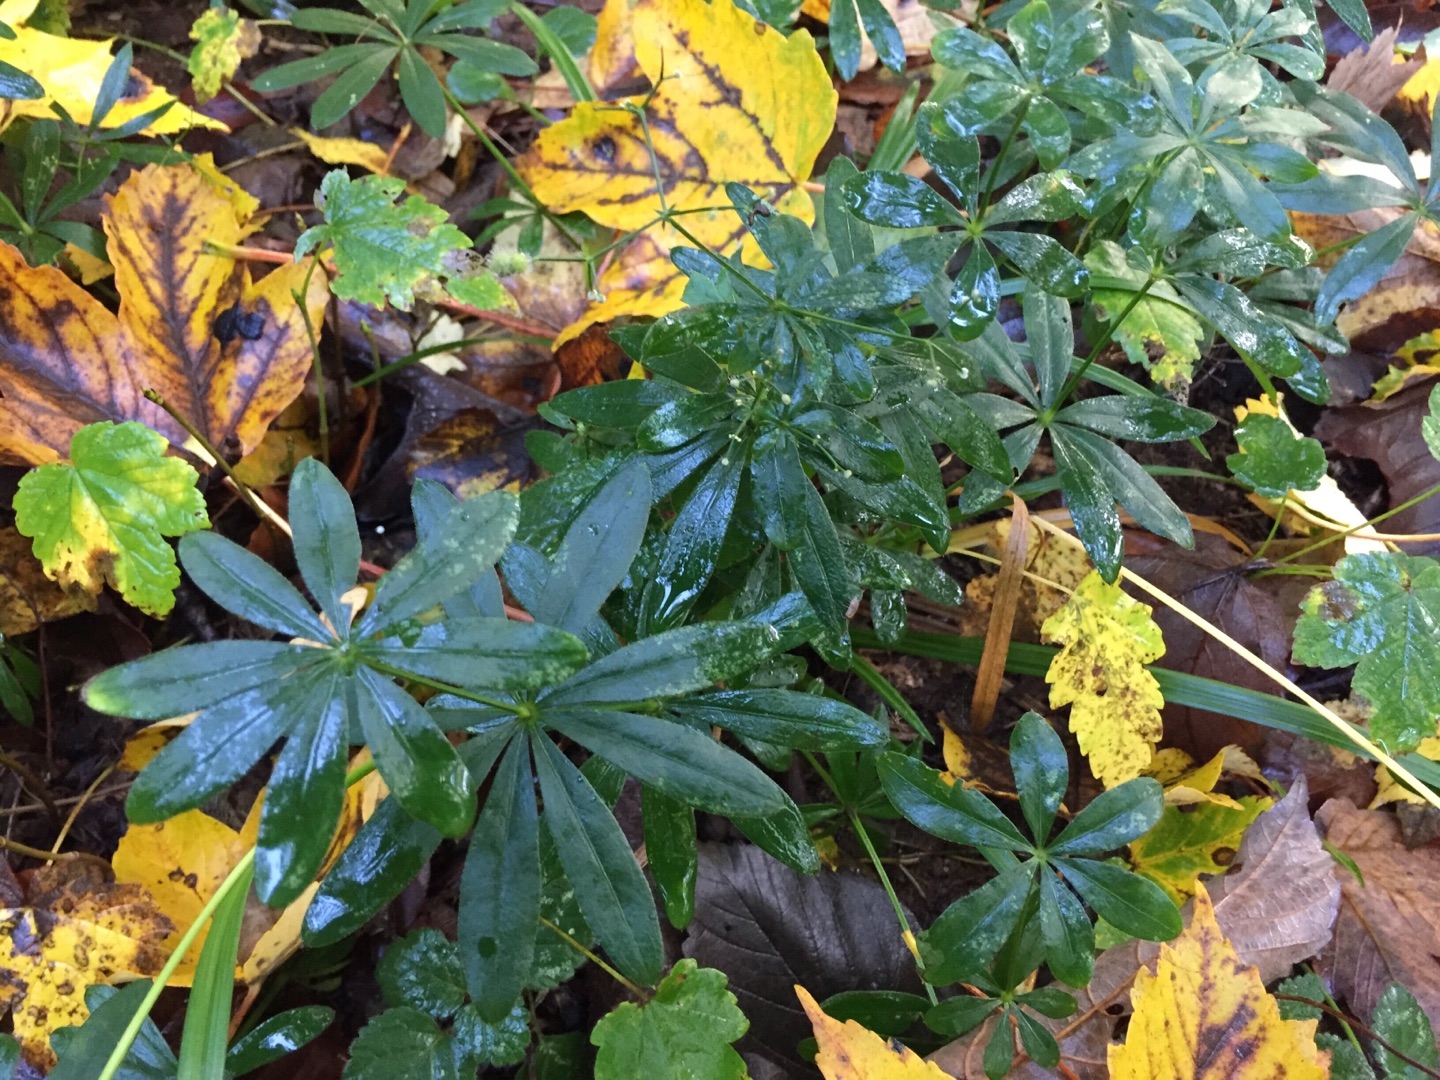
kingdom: Plantae
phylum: Tracheophyta
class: Magnoliopsida
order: Gentianales
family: Rubiaceae
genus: Galium
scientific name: Galium odoratum
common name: Skovmærke
